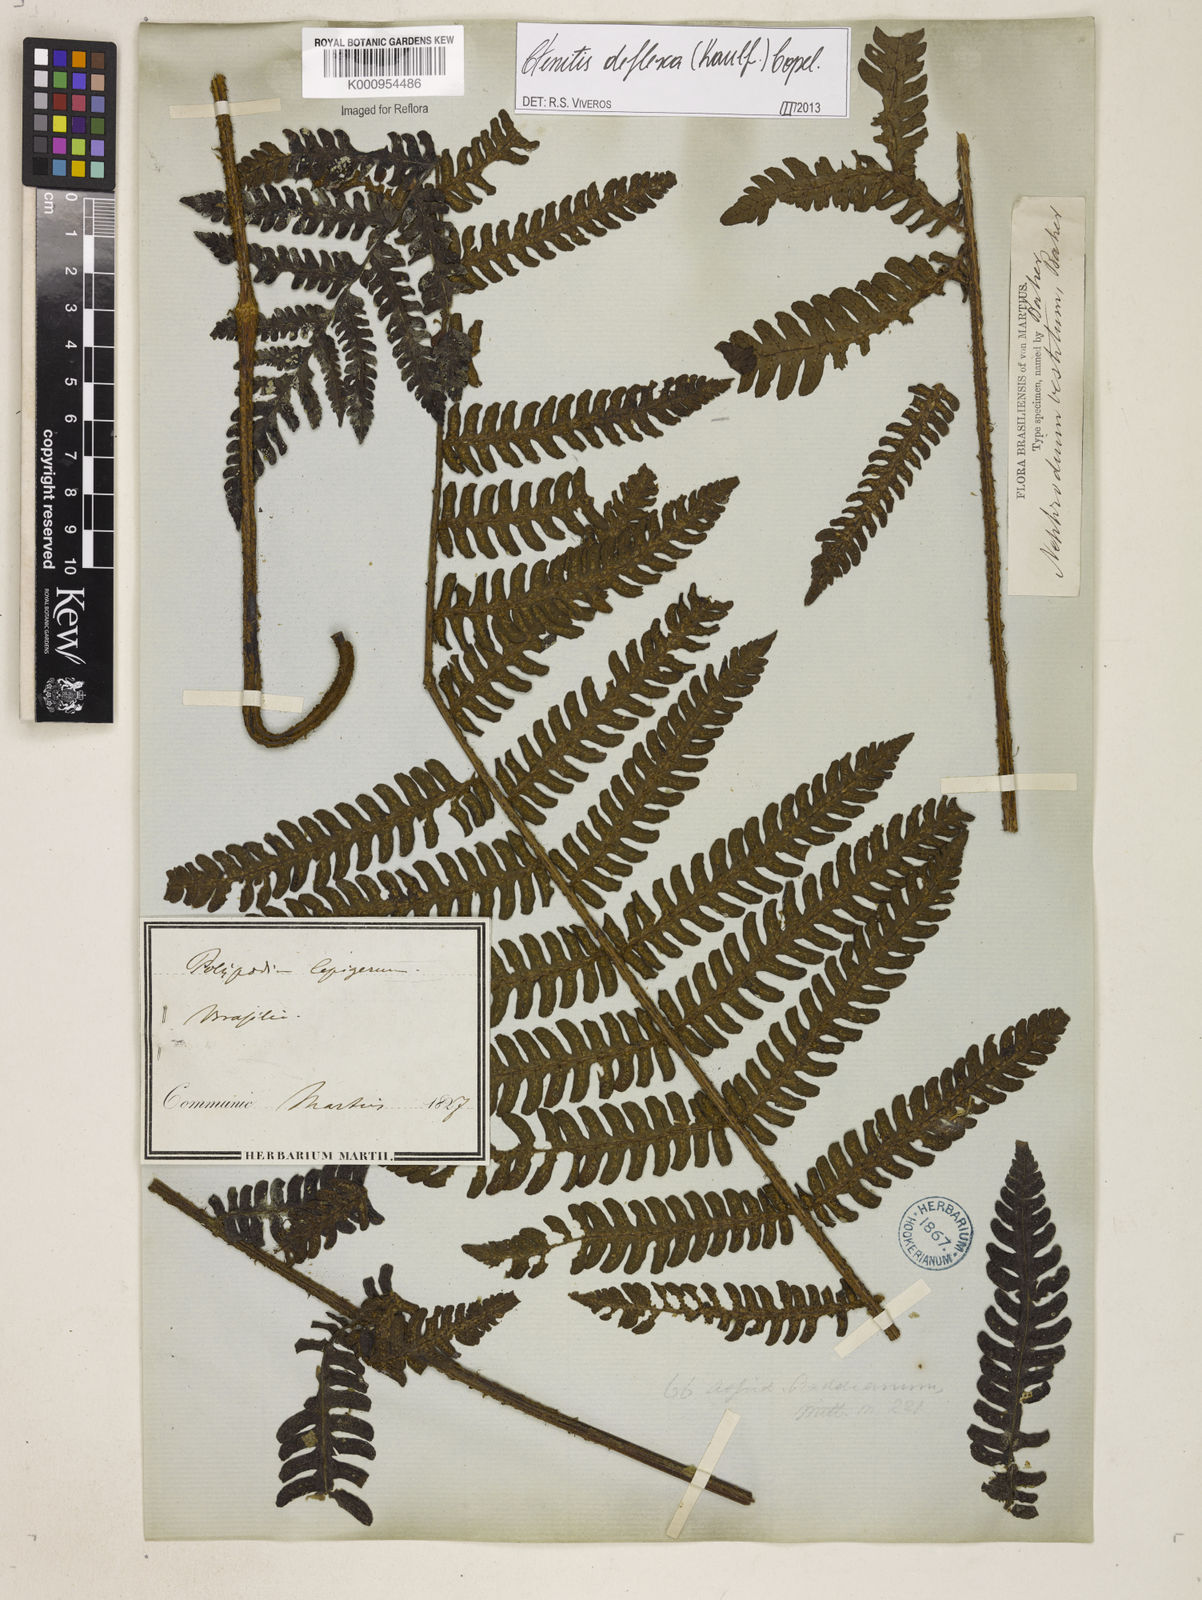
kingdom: Plantae
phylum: Tracheophyta
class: Polypodiopsida
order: Polypodiales
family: Dryopteridaceae
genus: Ctenitis
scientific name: Ctenitis deflexa
